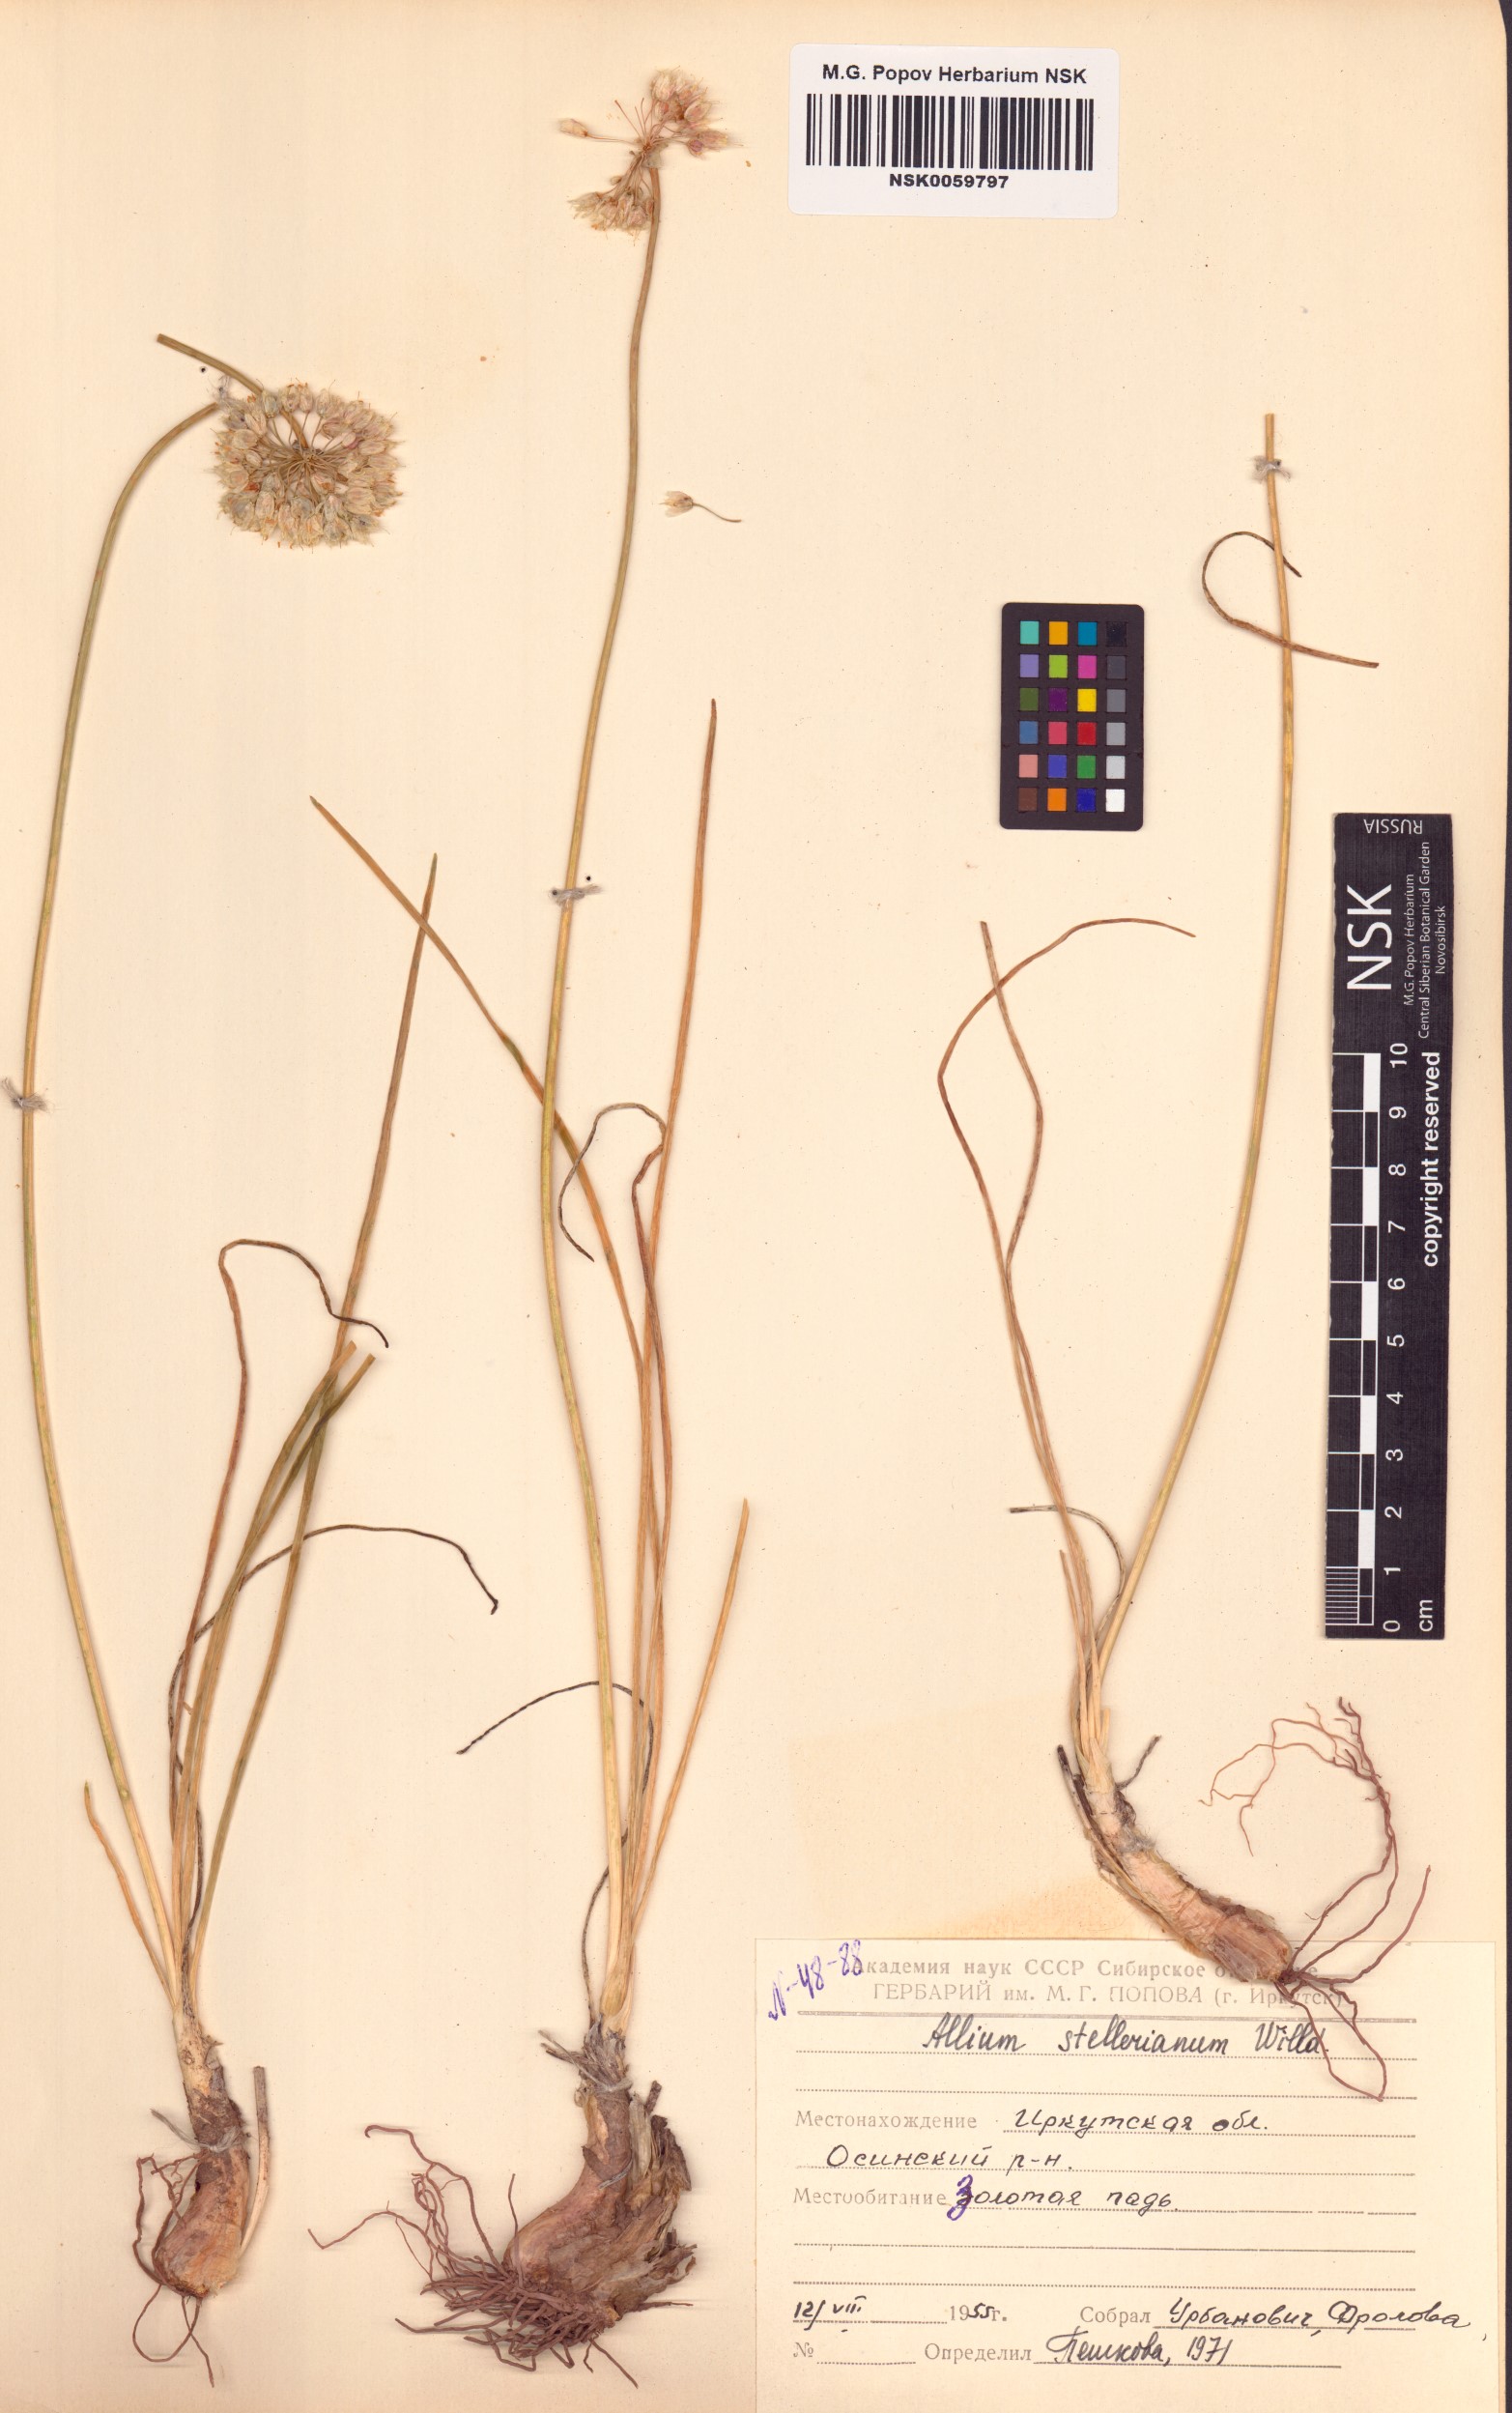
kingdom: Plantae
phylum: Tracheophyta
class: Liliopsida
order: Asparagales
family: Amaryllidaceae
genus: Allium
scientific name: Allium stellerianum
